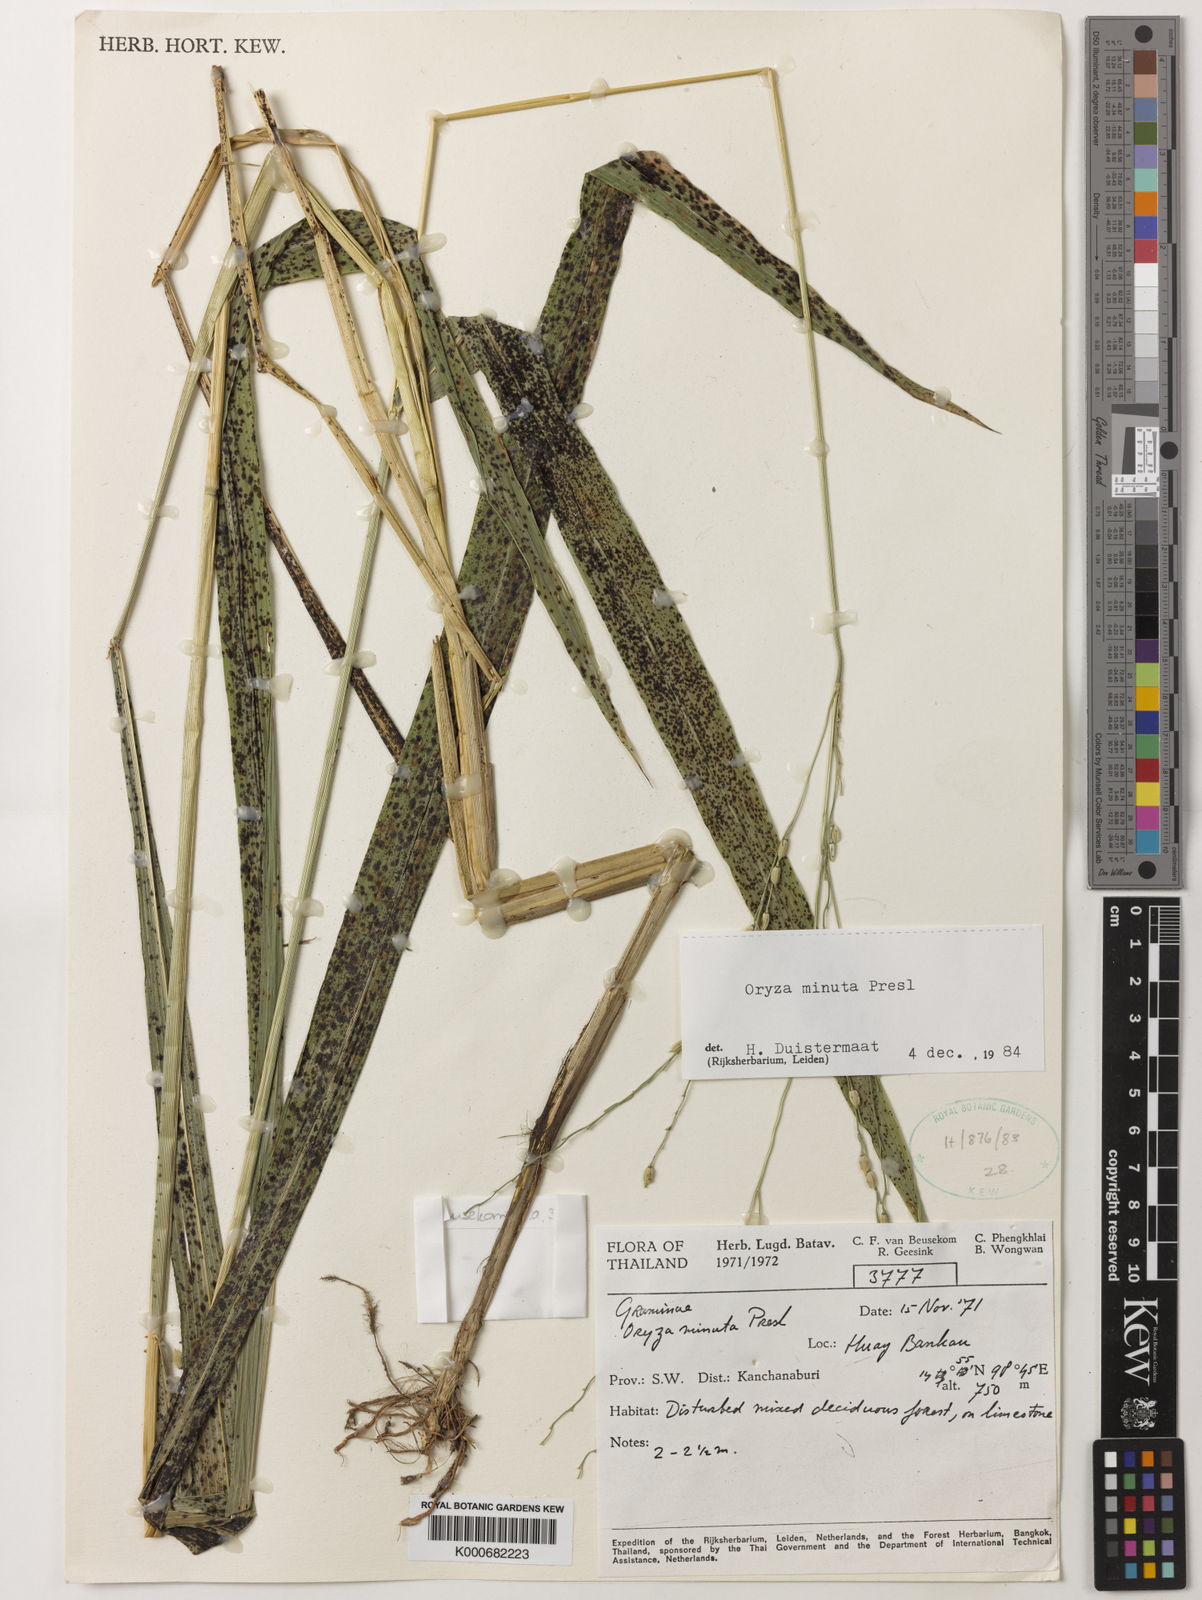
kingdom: Plantae
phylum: Tracheophyta
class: Liliopsida
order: Poales
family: Poaceae
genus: Oryza
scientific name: Oryza minuta
